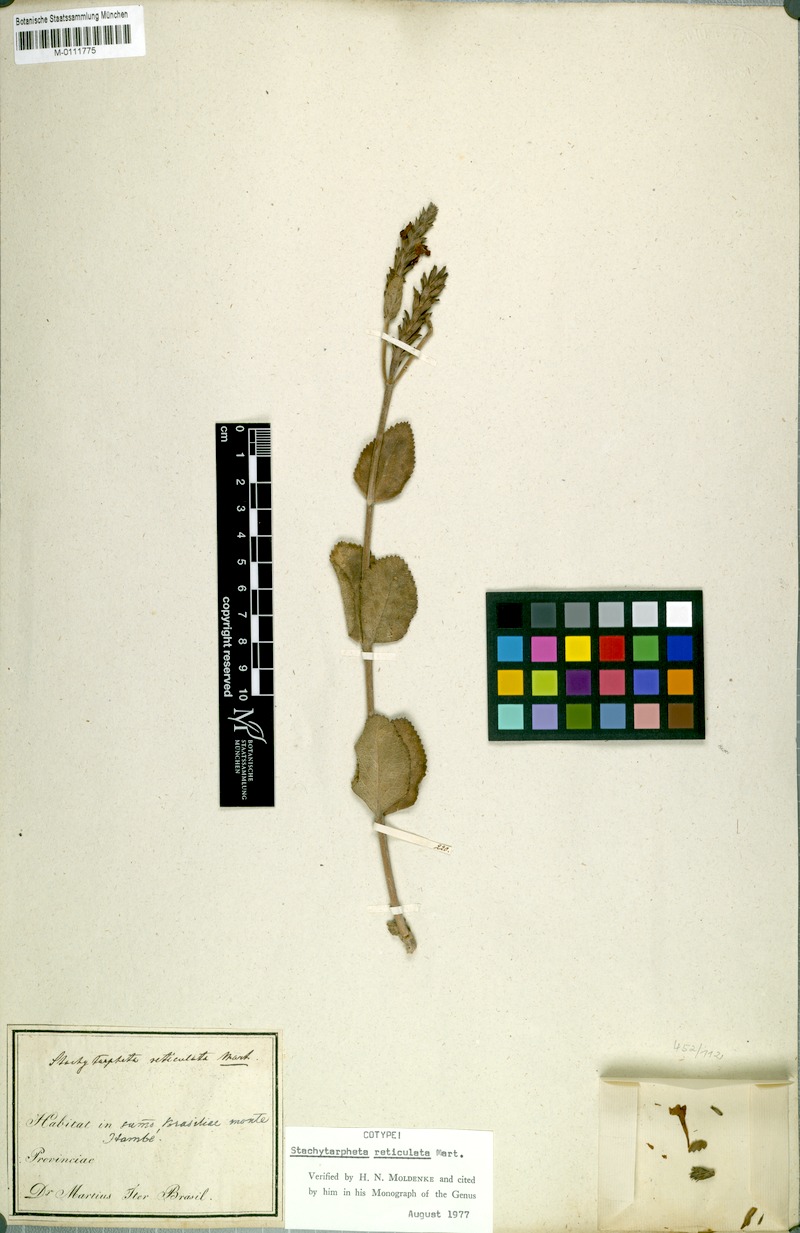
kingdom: Plantae
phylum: Tracheophyta
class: Magnoliopsida
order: Lamiales
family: Verbenaceae
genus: Stachytarpheta
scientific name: Stachytarpheta reticulata
